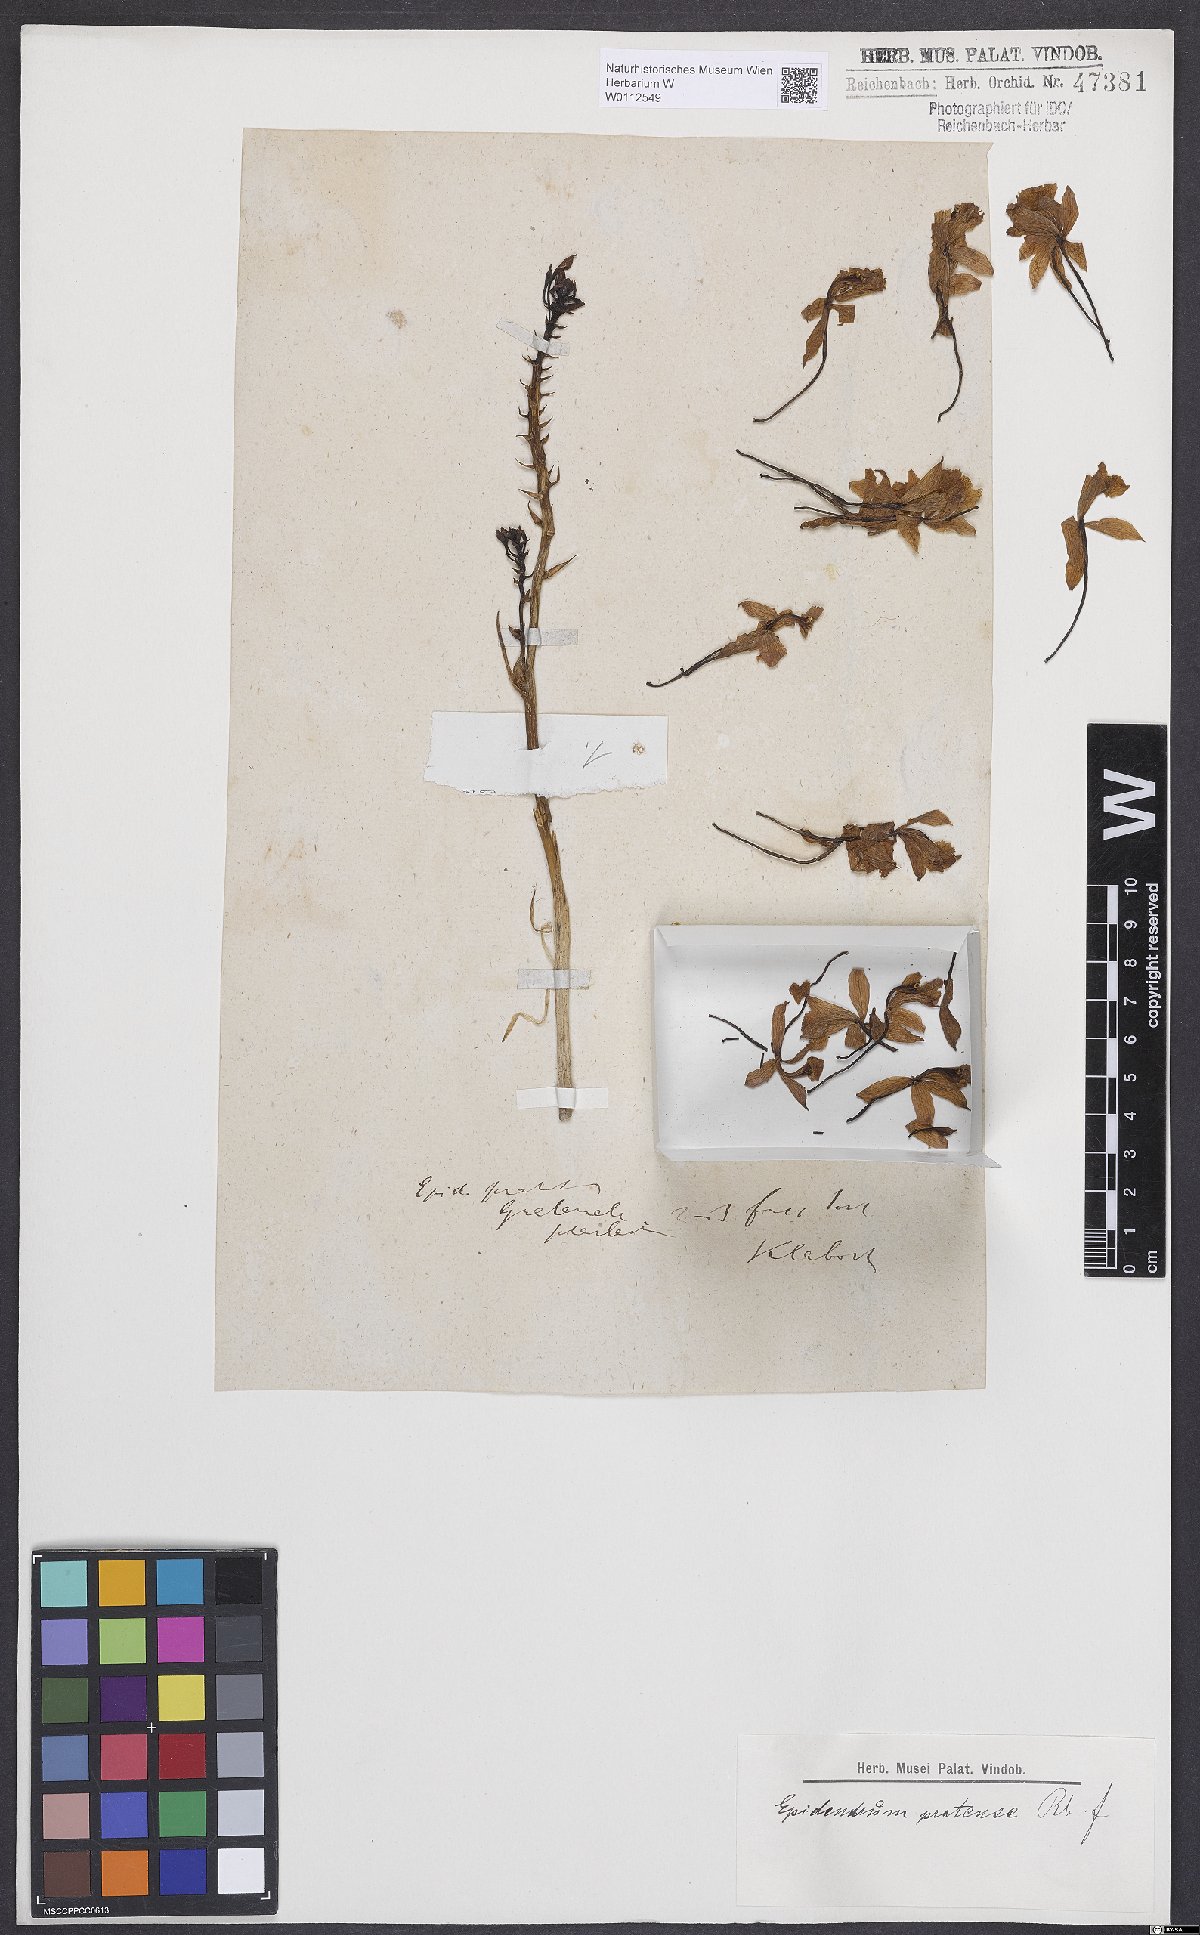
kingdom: Plantae
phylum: Tracheophyta
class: Liliopsida
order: Asparagales
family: Orchidaceae
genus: Epidendrum
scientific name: Epidendrum radicans
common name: Fire star orchid
